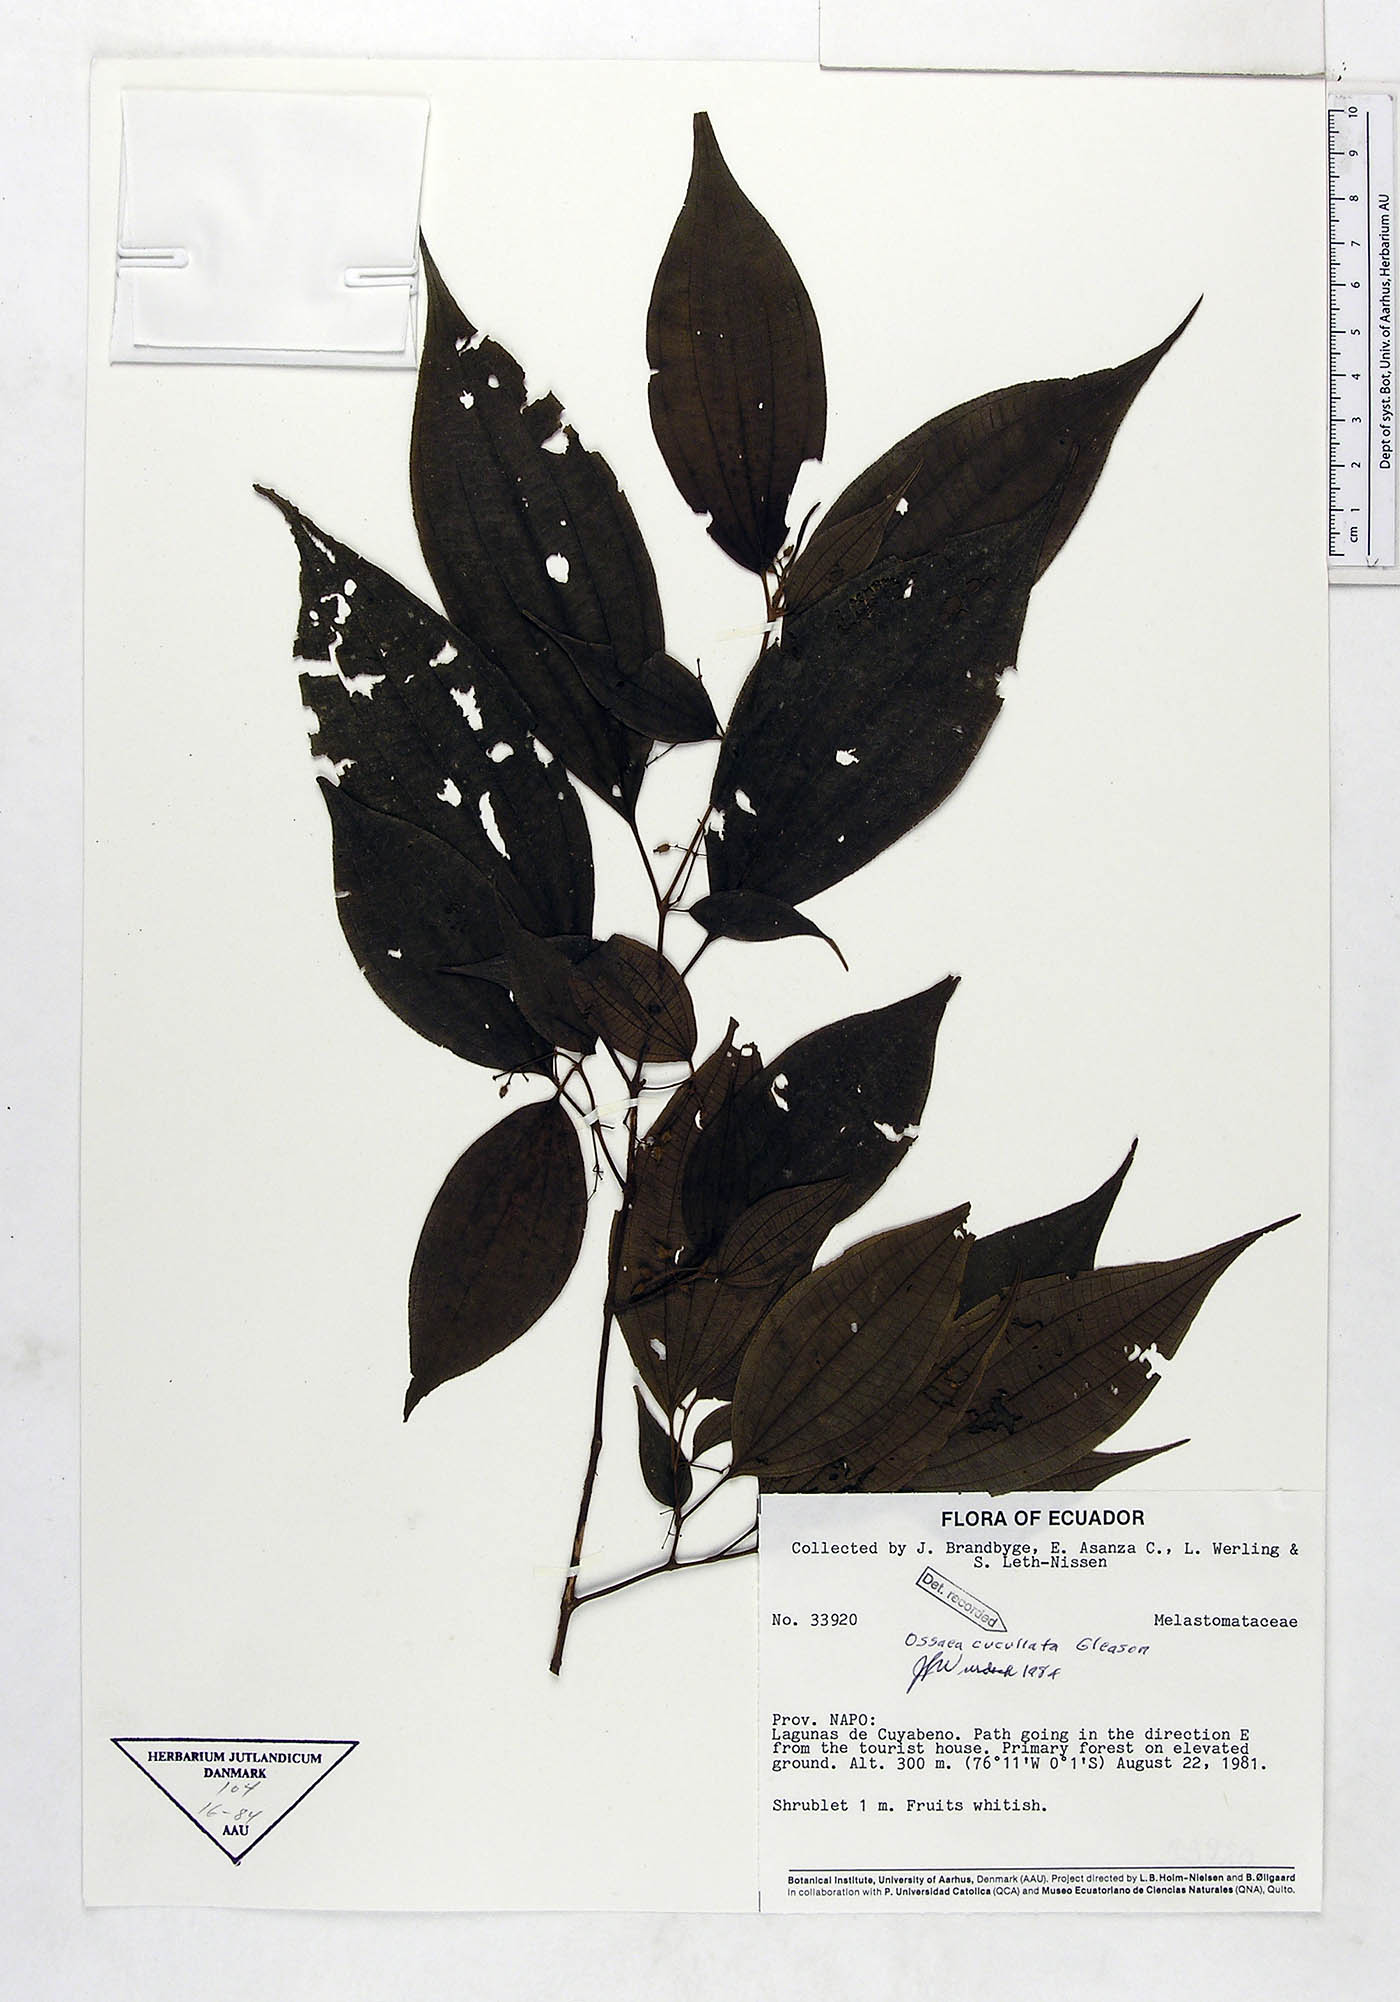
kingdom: Plantae
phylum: Tracheophyta
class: Magnoliopsida
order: Myrtales
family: Melastomataceae
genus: Miconia
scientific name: Miconia cucullata
